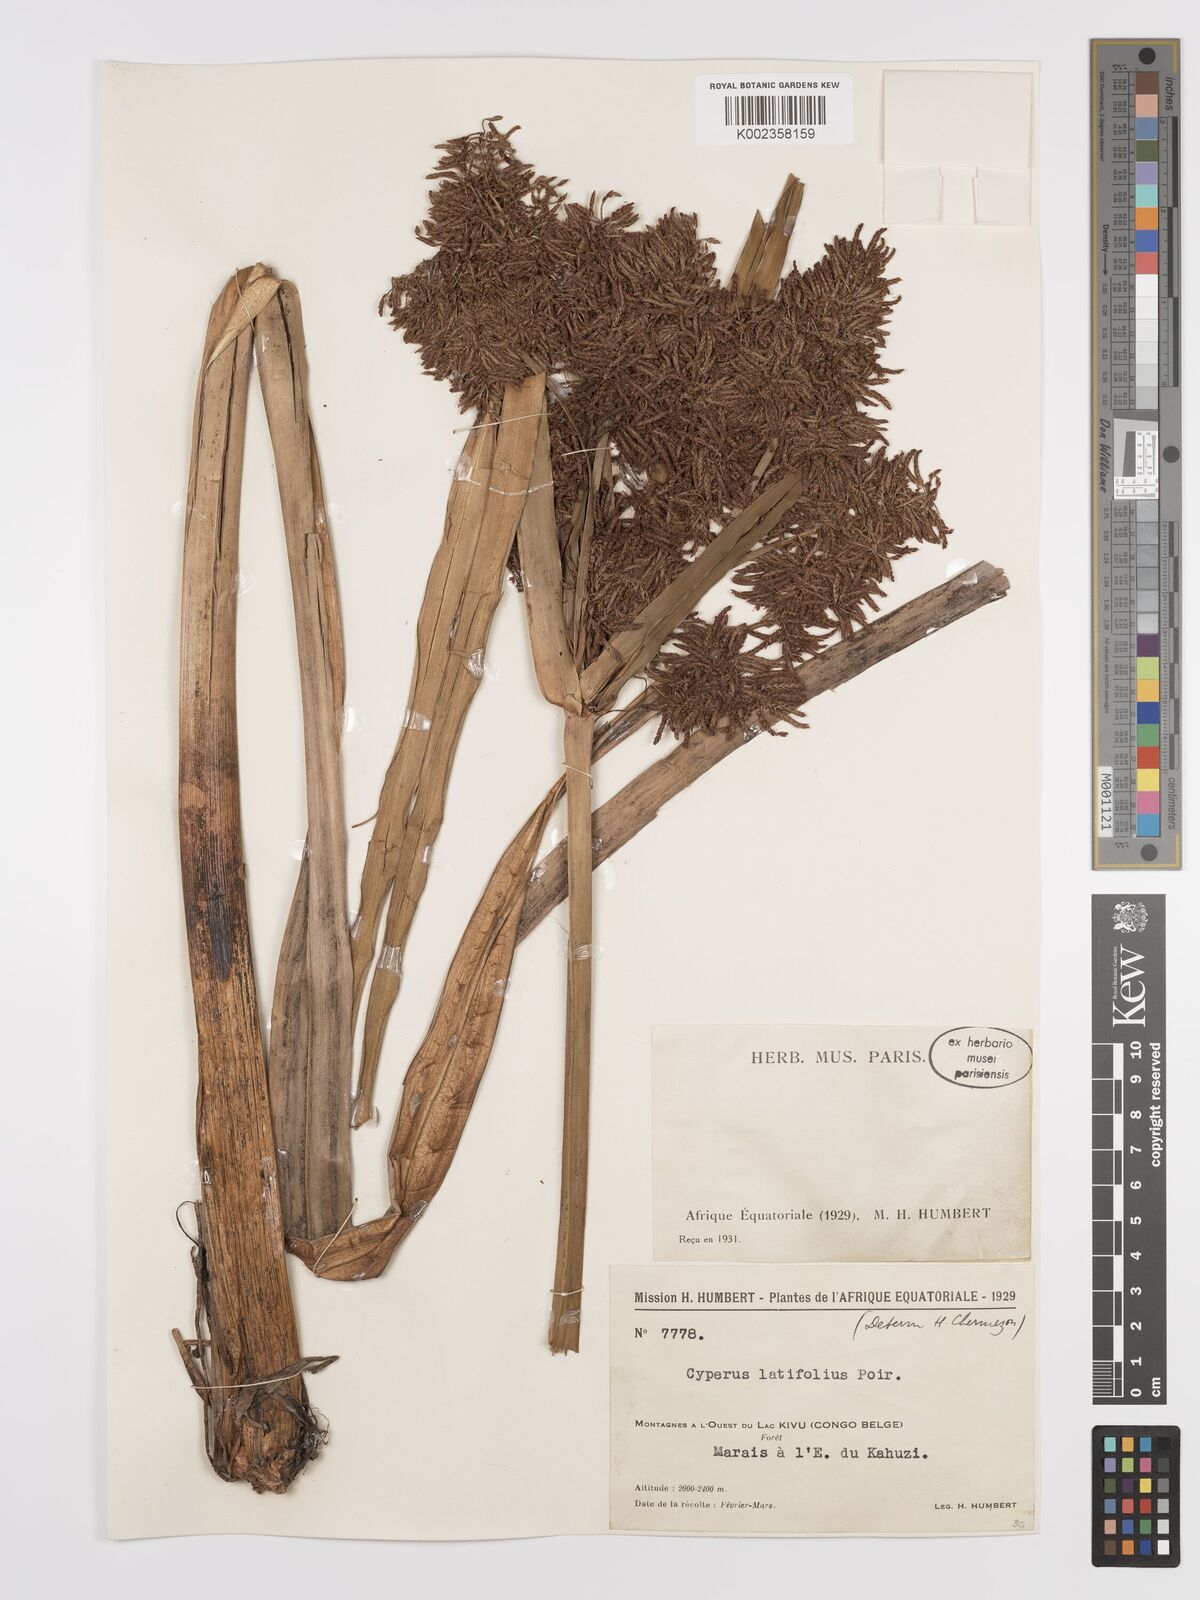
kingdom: Plantae
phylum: Tracheophyta
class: Liliopsida
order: Poales
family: Cyperaceae
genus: Cyperus
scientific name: Cyperus latifolius
